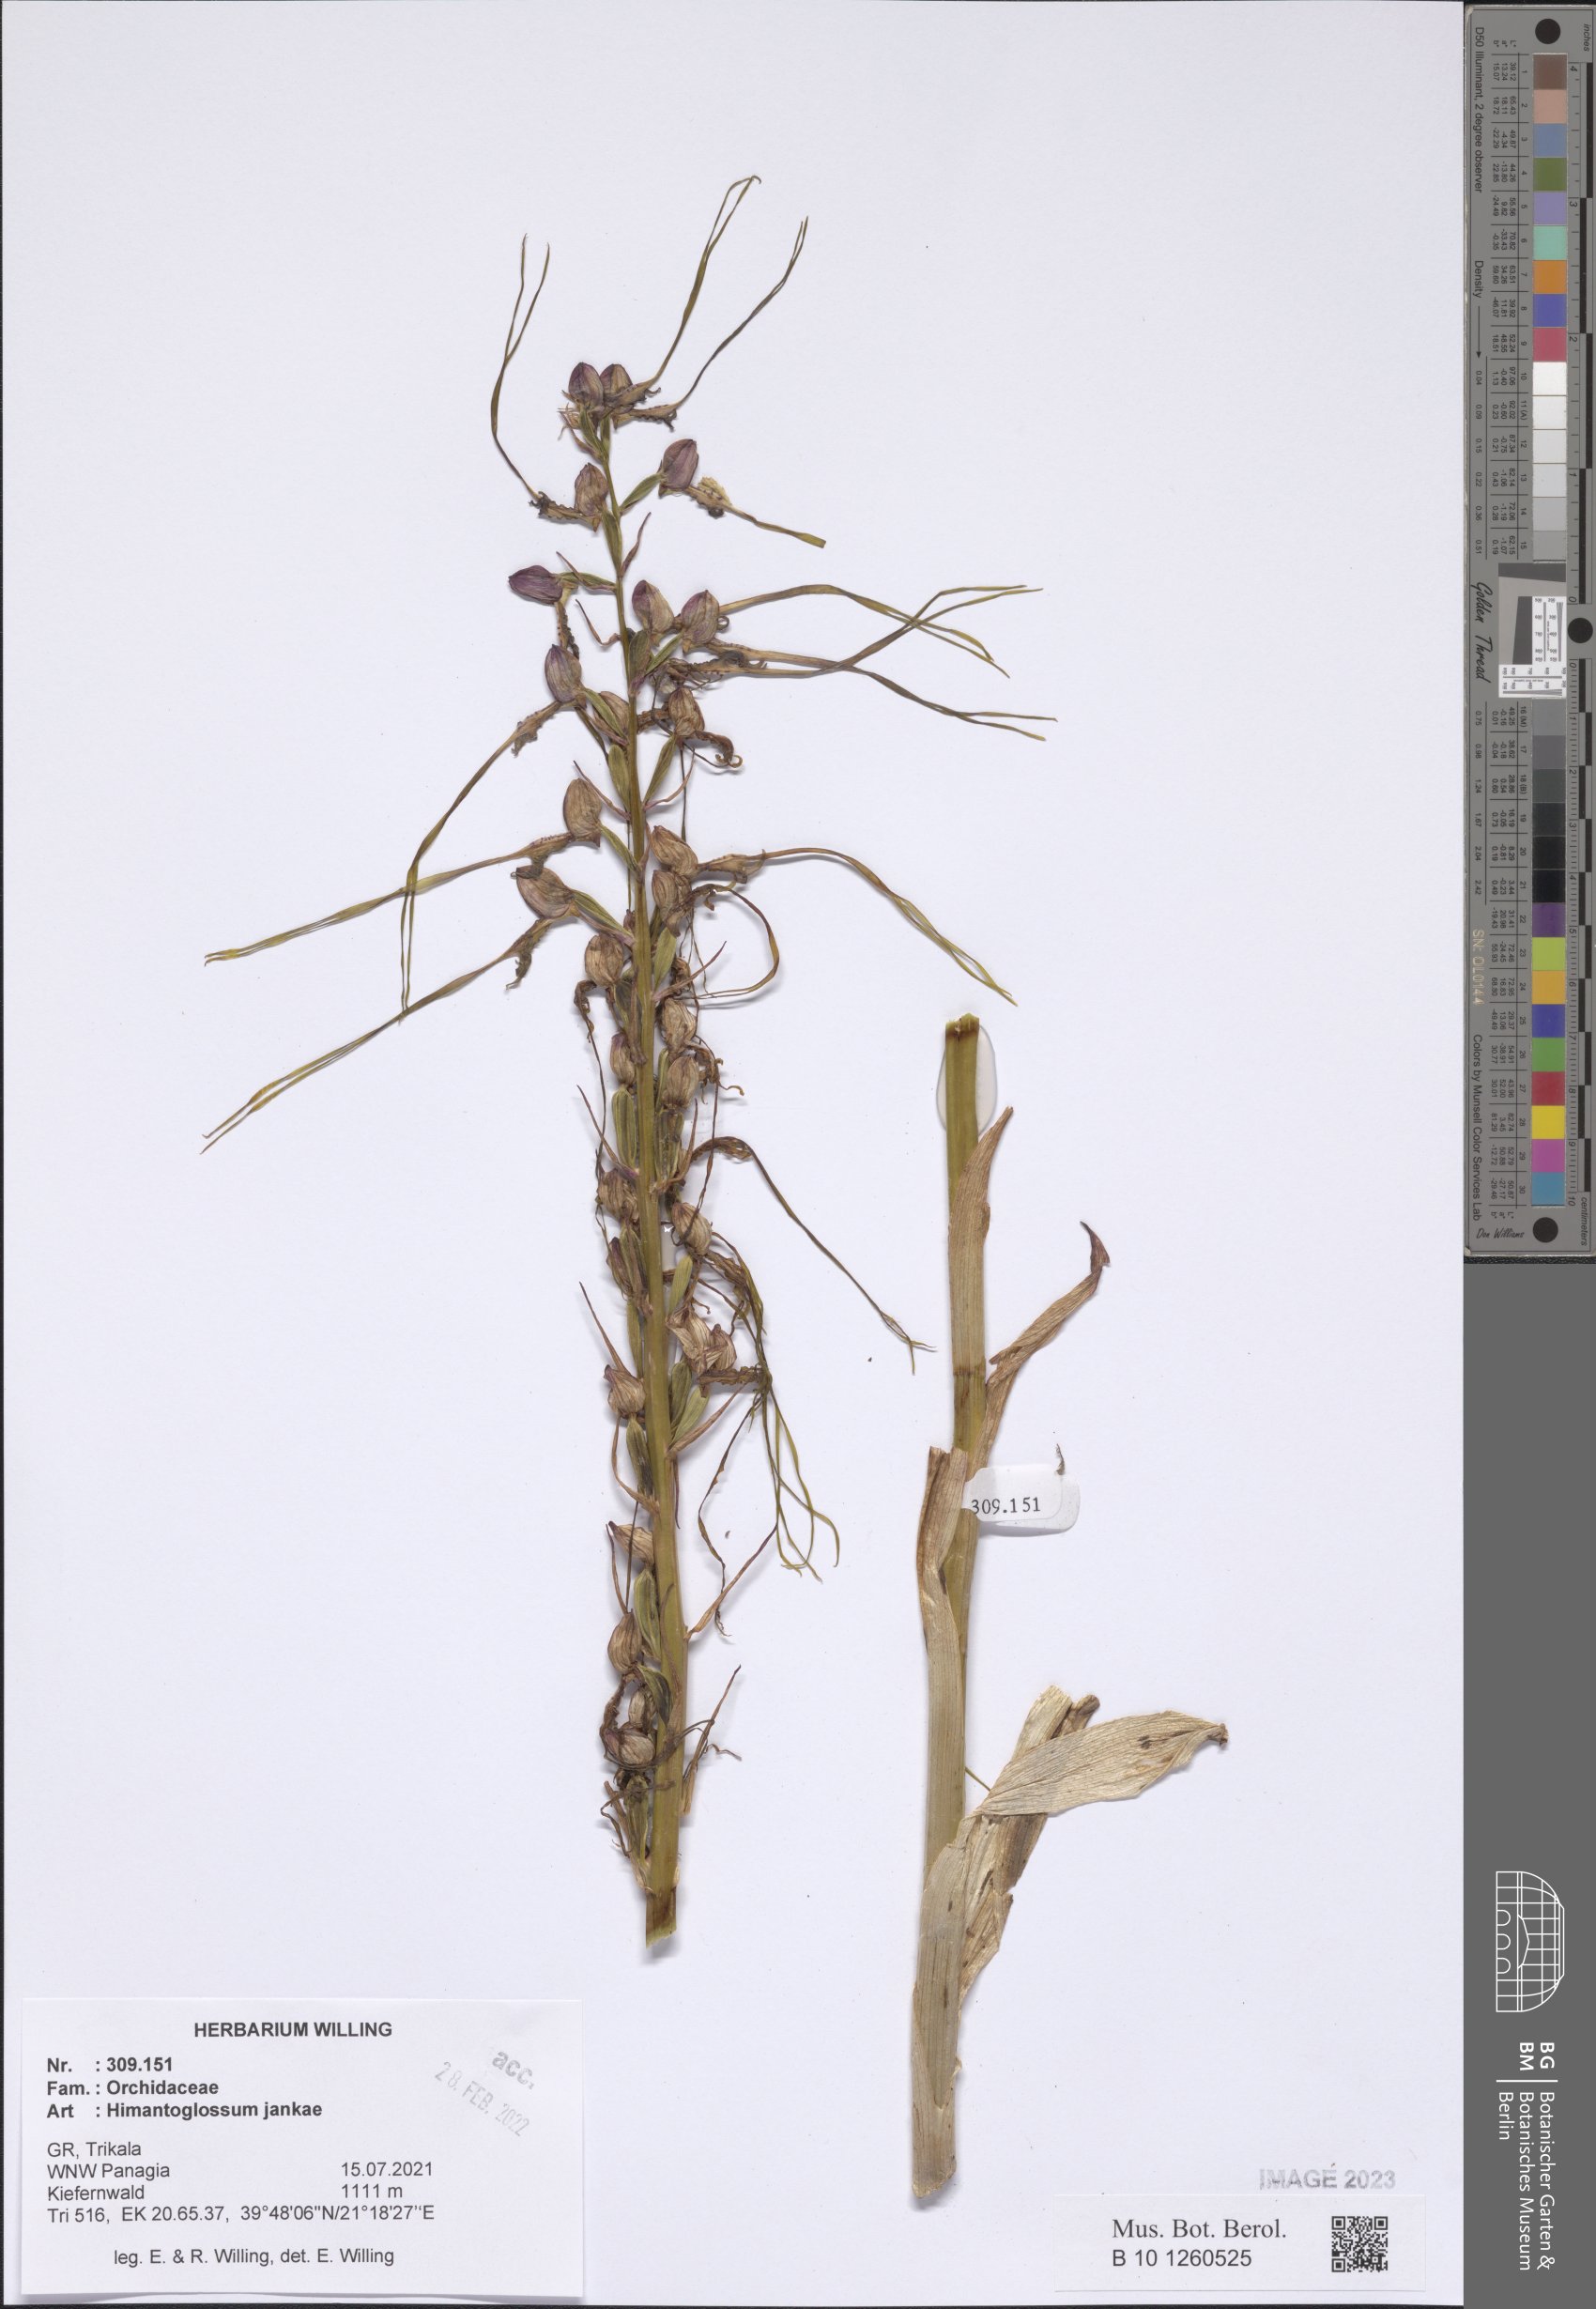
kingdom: Plantae
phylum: Tracheophyta
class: Liliopsida
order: Asparagales
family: Orchidaceae
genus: Himantoglossum
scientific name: Himantoglossum calcaratum
